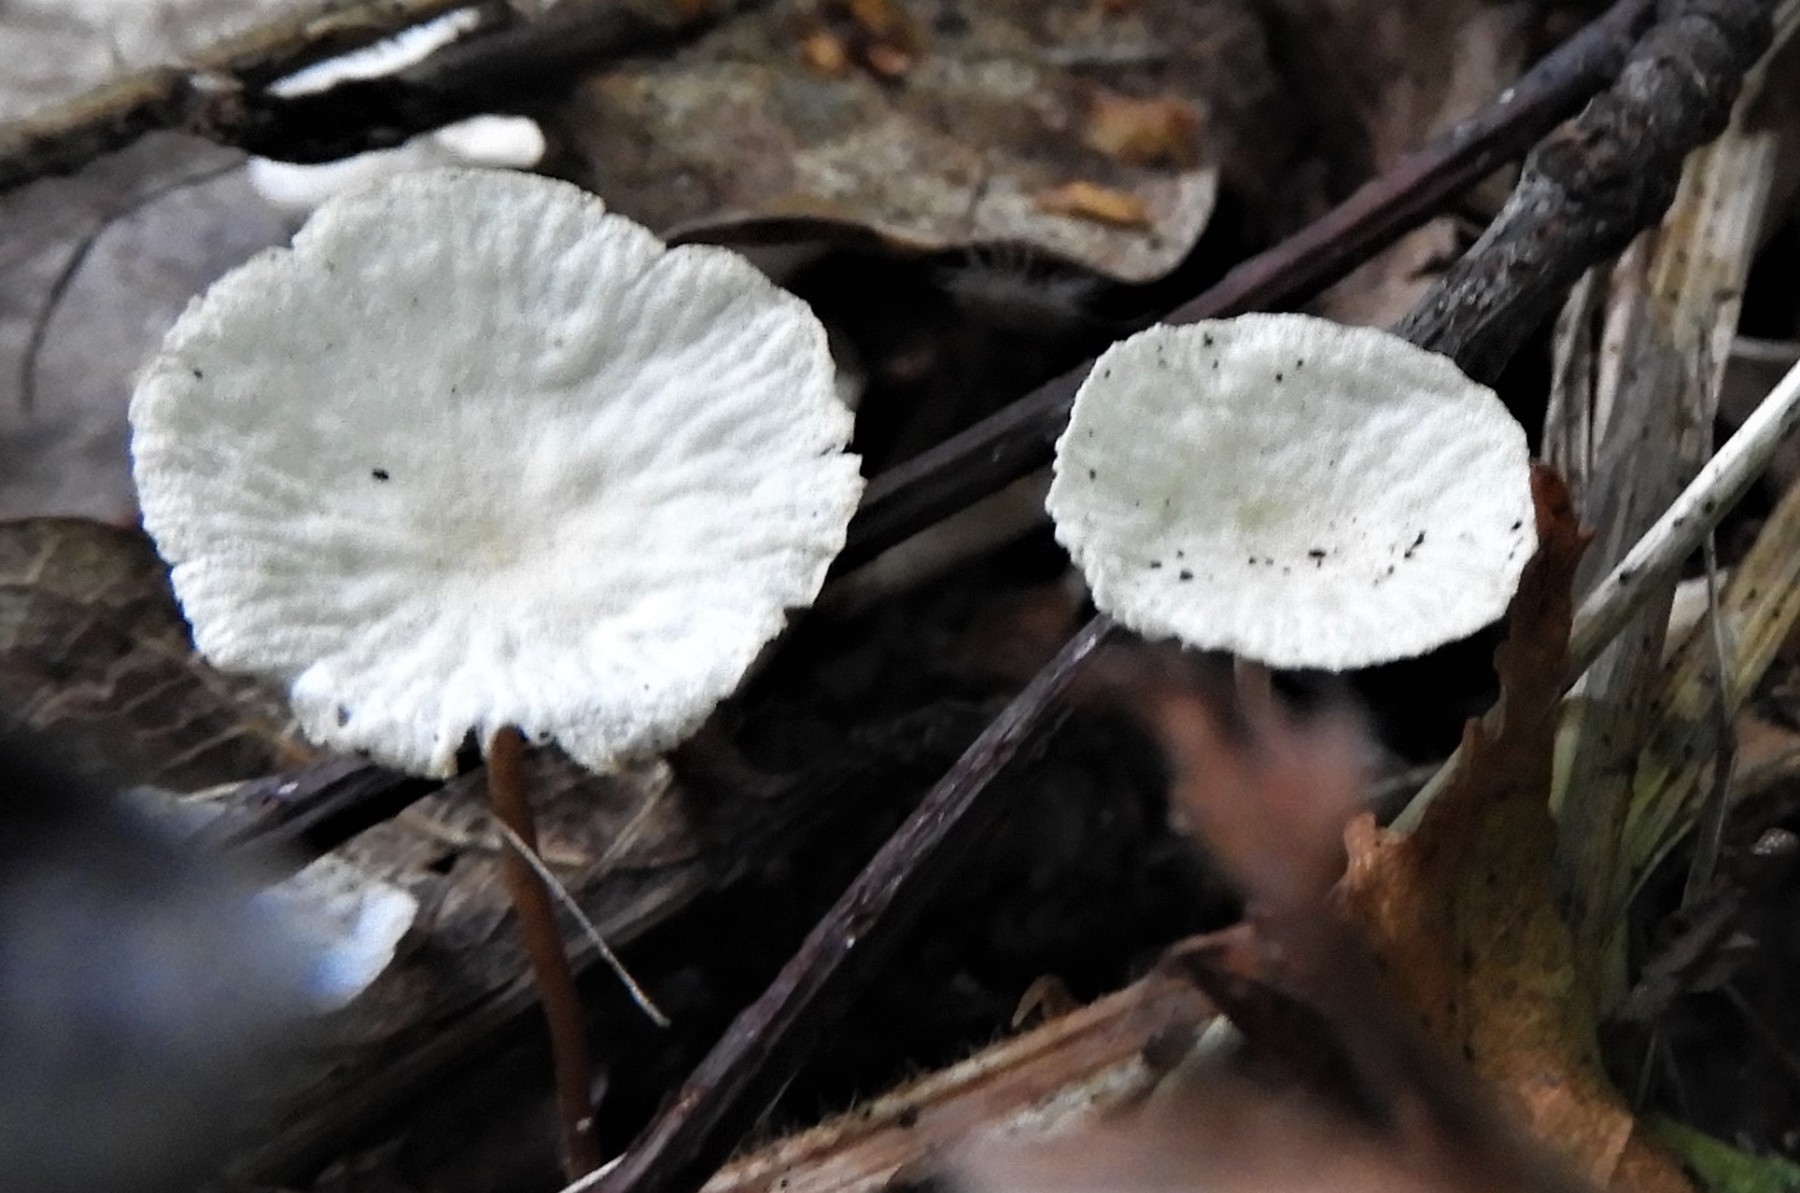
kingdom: Fungi
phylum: Basidiomycota
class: Agaricomycetes
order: Agaricales
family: Omphalotaceae
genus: Marasmiellus
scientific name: Marasmiellus
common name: bruskhat
